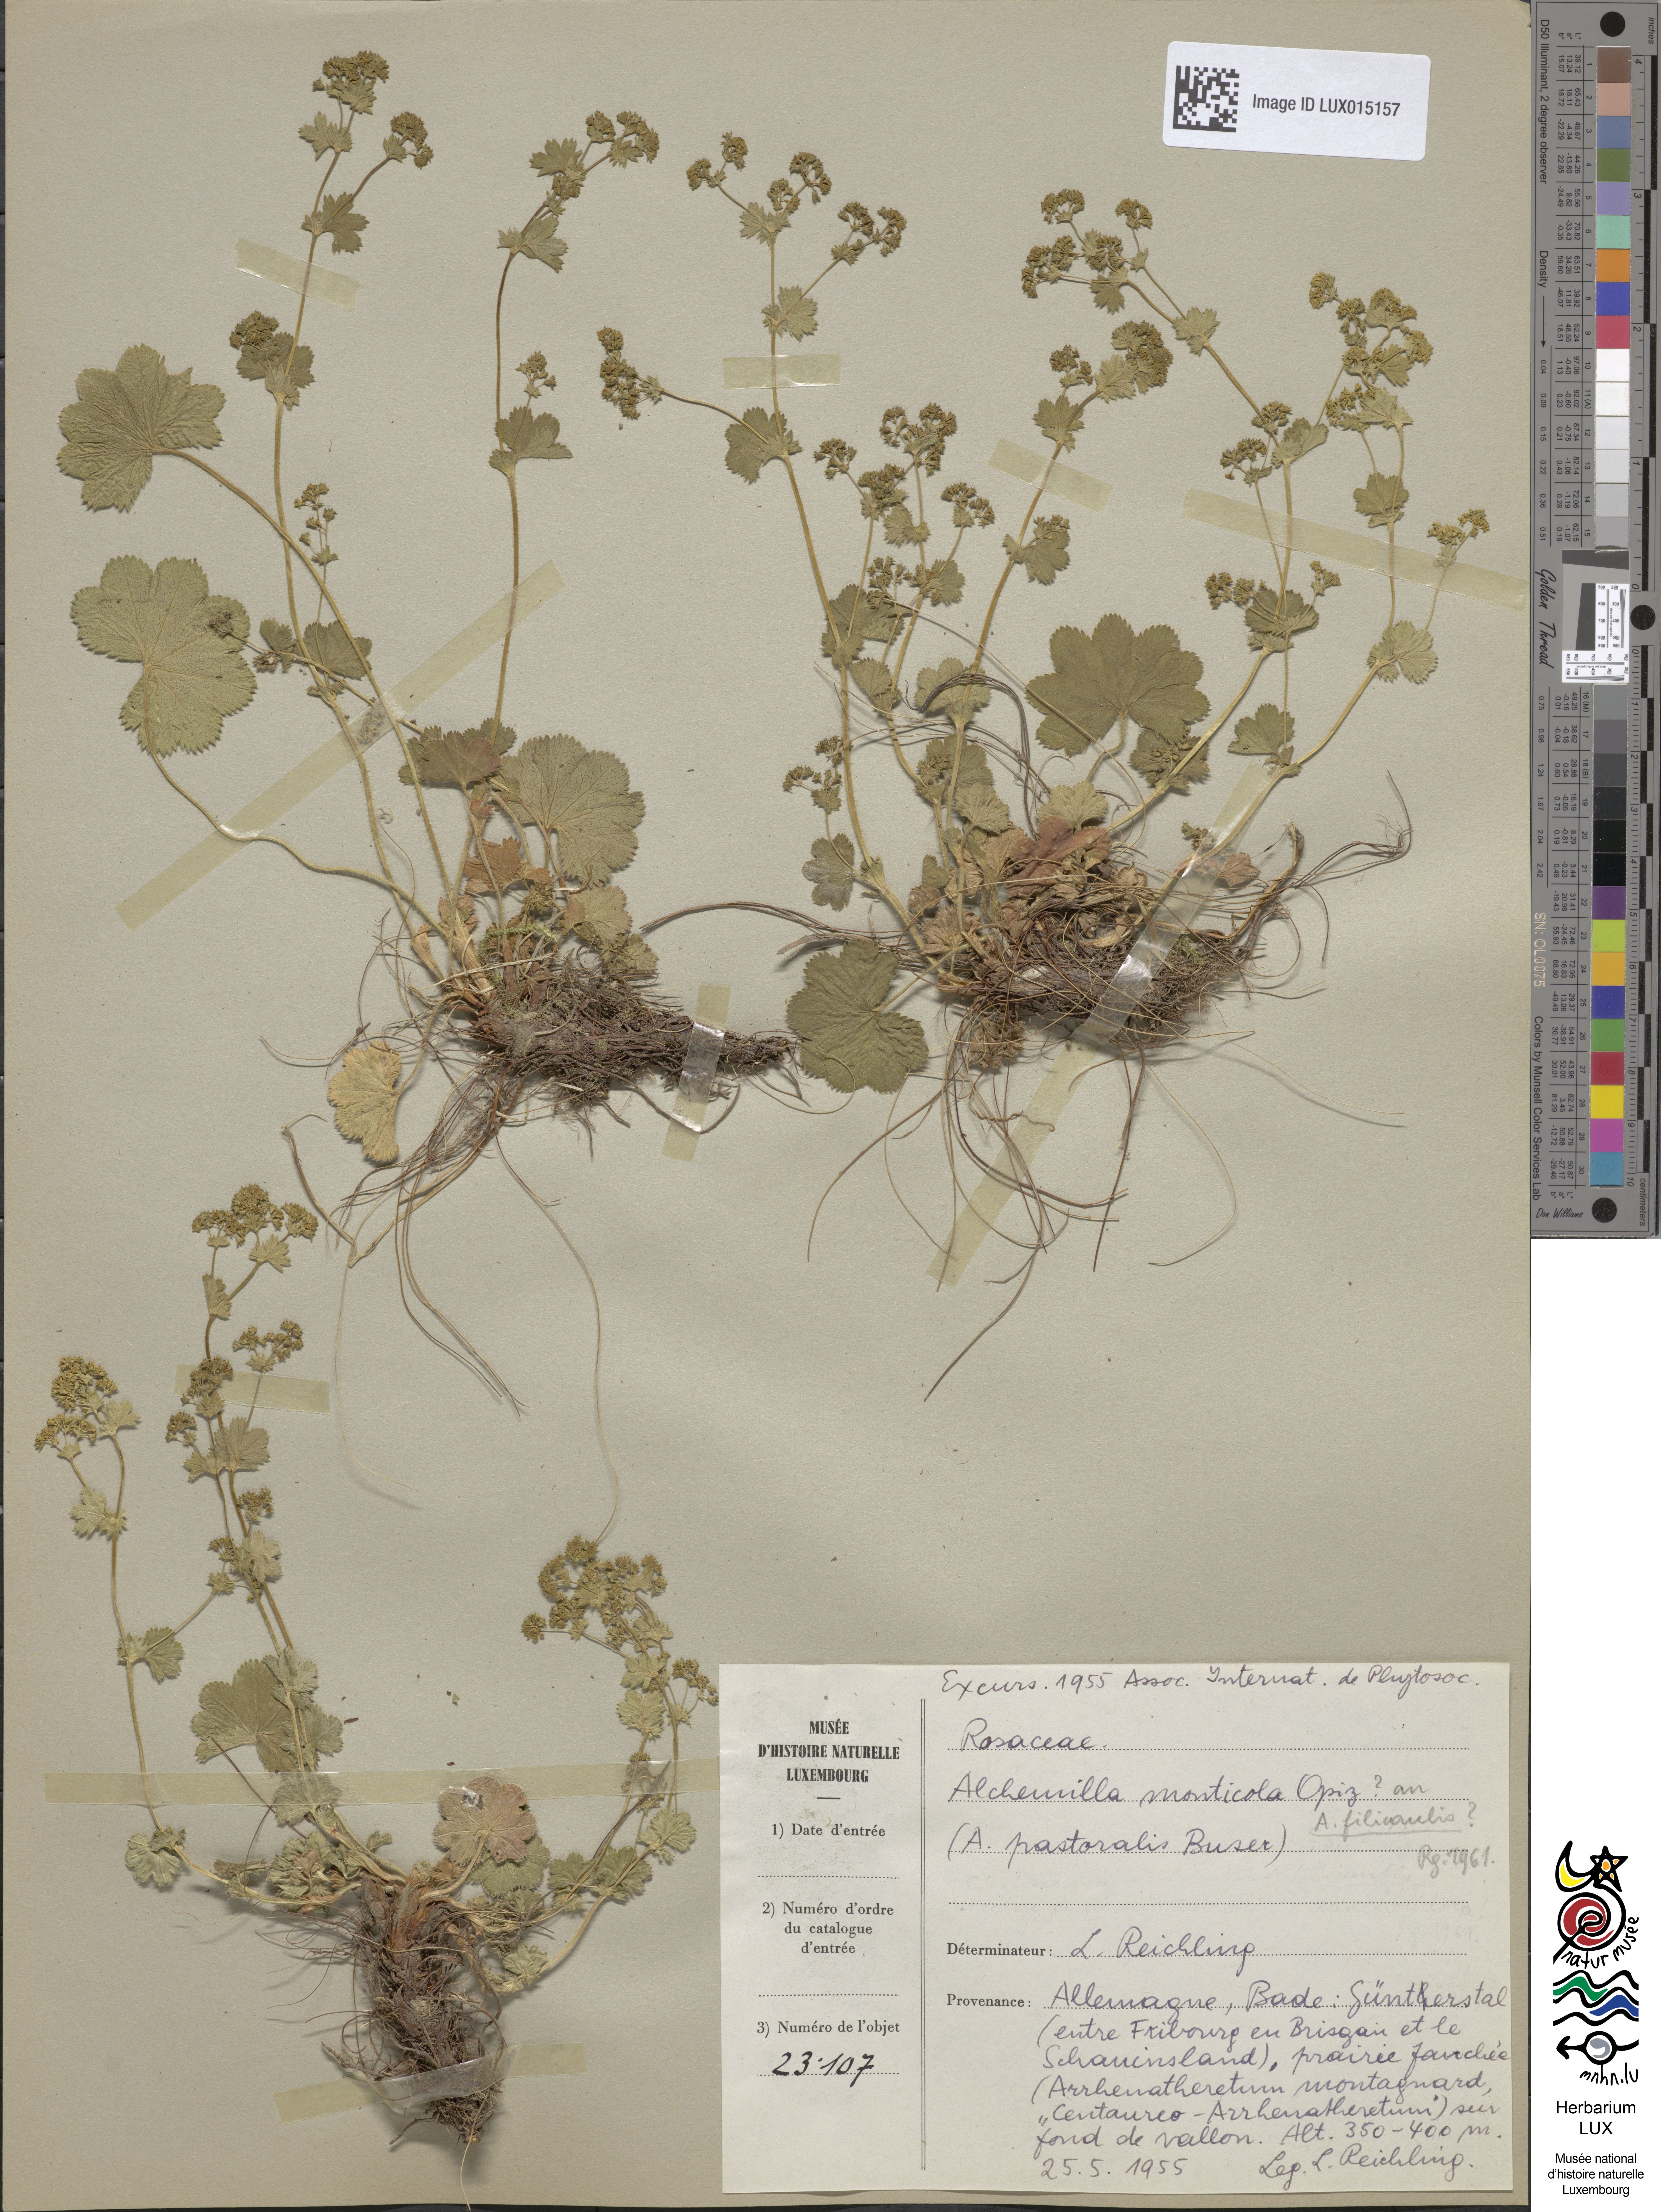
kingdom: Plantae
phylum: Tracheophyta
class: Magnoliopsida
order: Rosales
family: Rosaceae
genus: Alchemilla
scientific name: Alchemilla monticola
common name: Hairy lady's mantle
